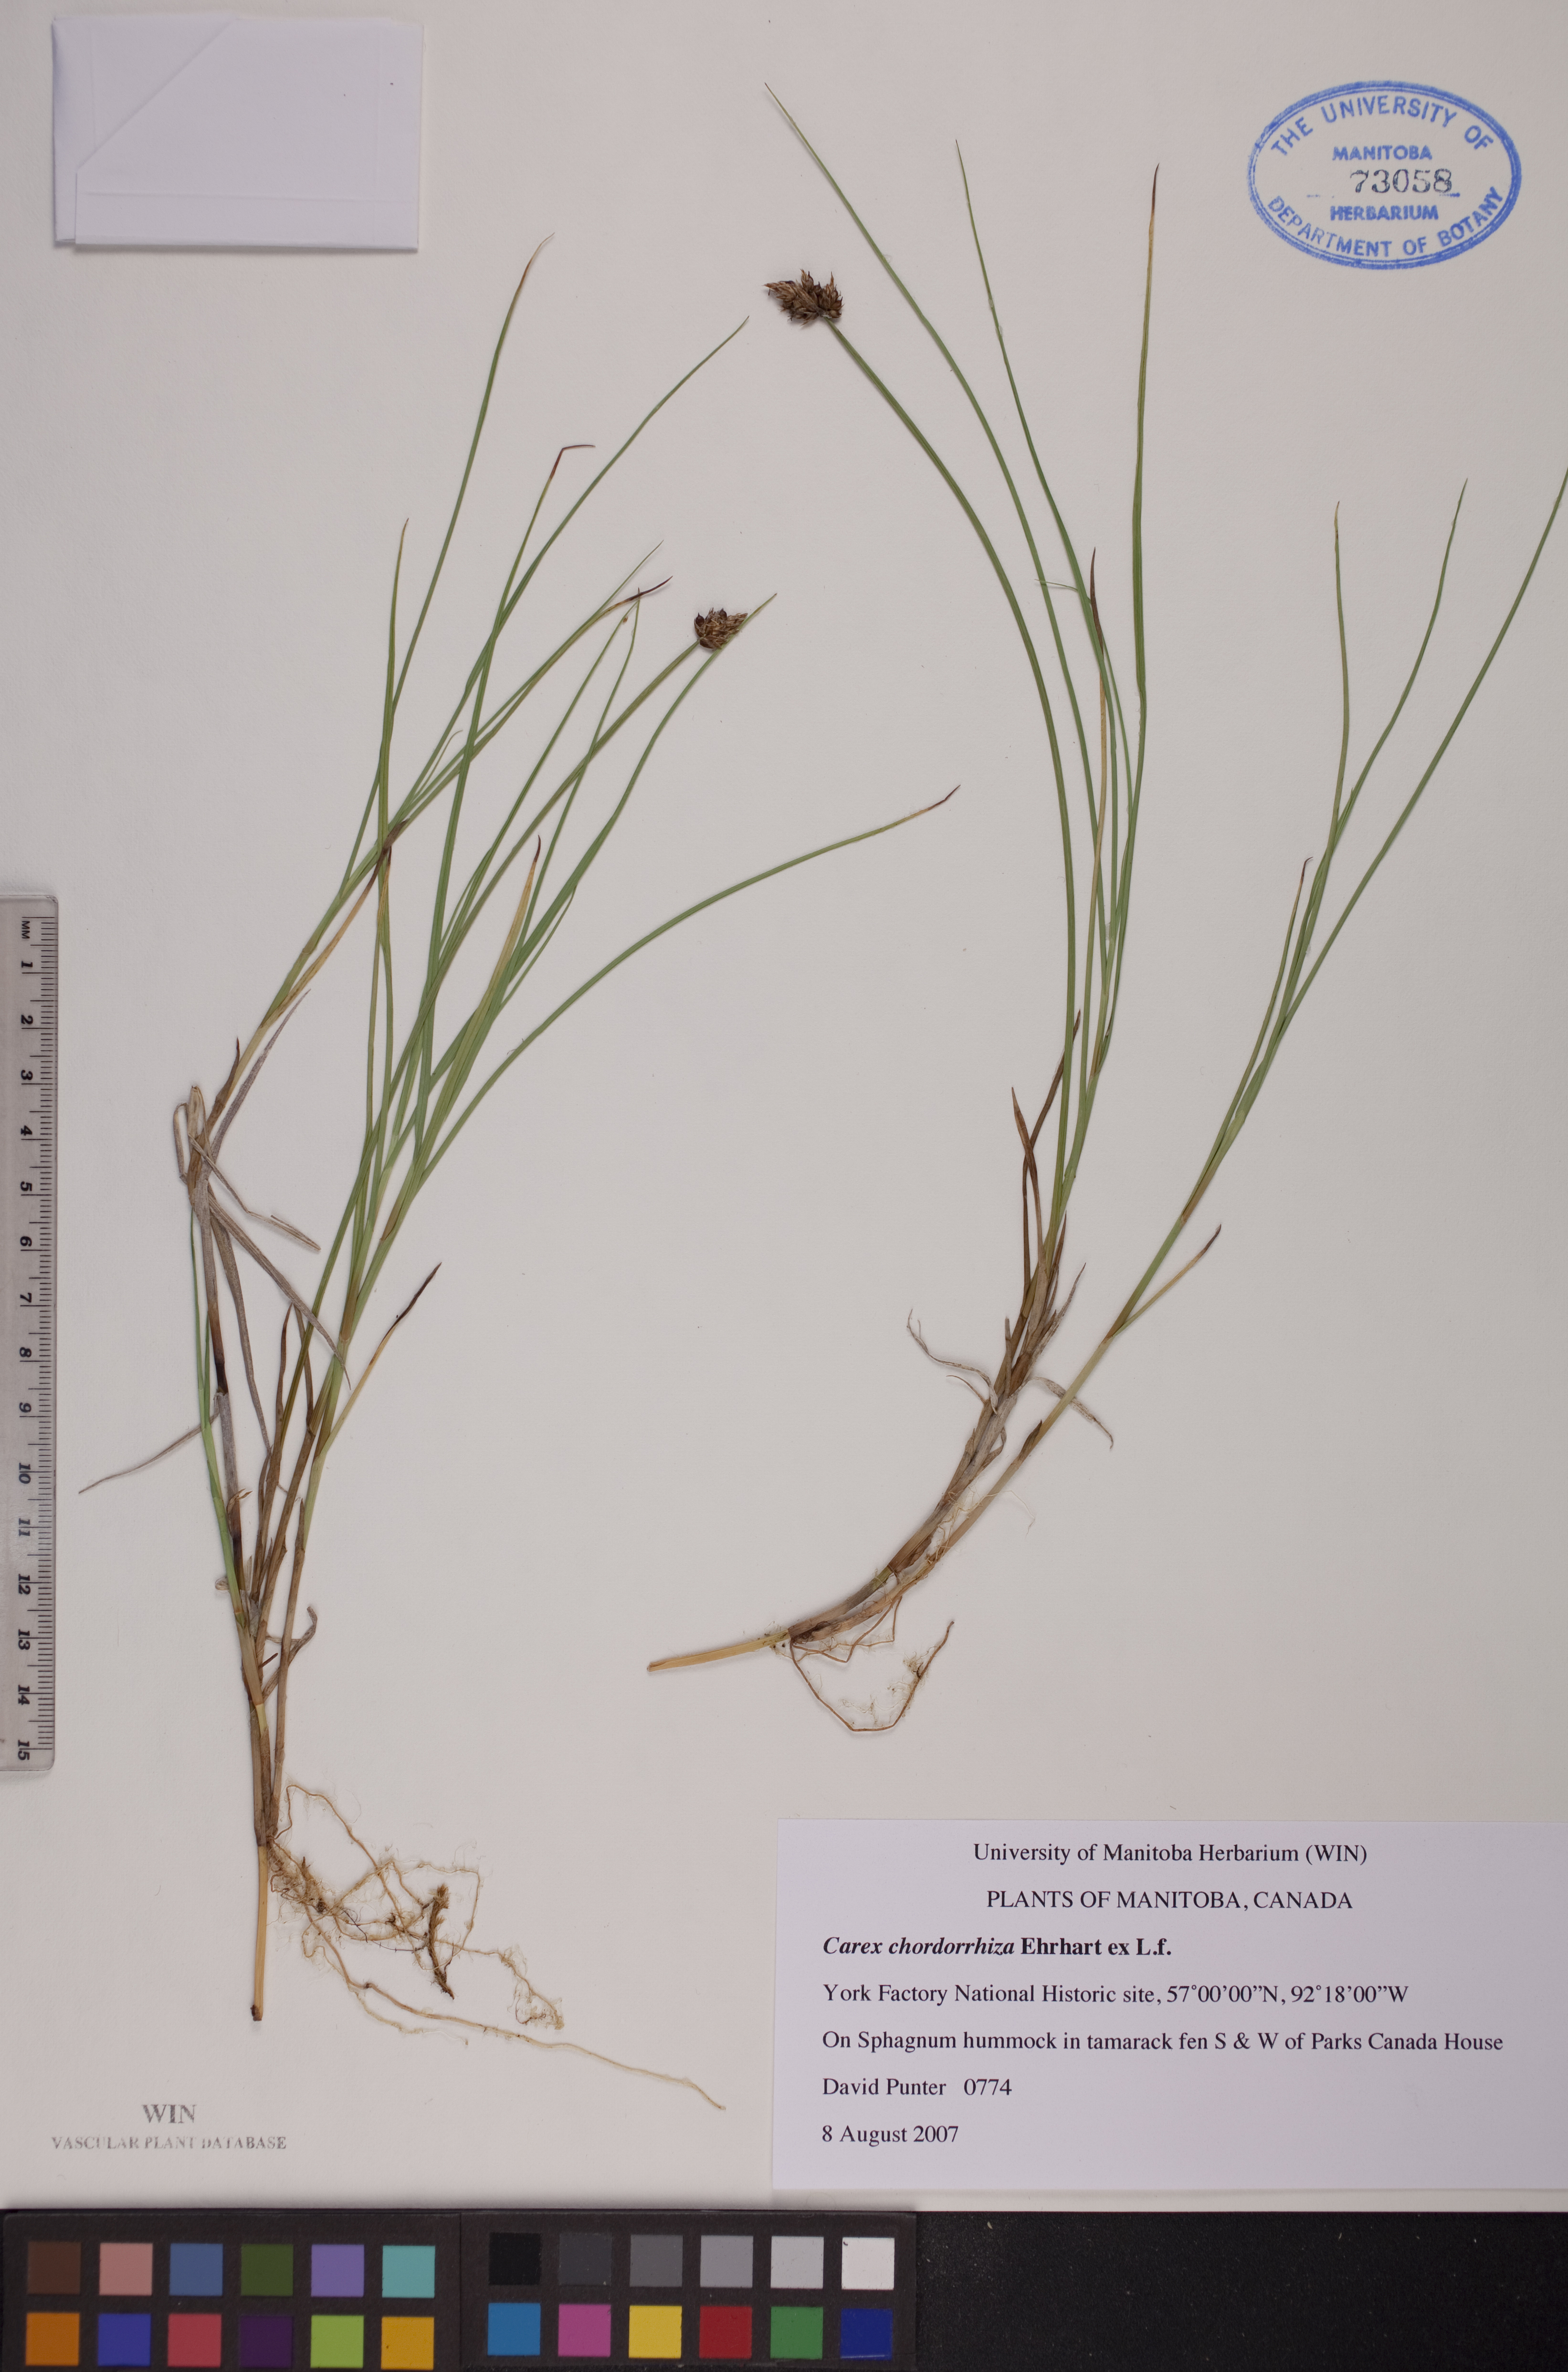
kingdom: Plantae
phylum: Tracheophyta
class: Liliopsida
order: Poales
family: Cyperaceae
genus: Carex
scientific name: Carex chordorrhiza
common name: String sedge
